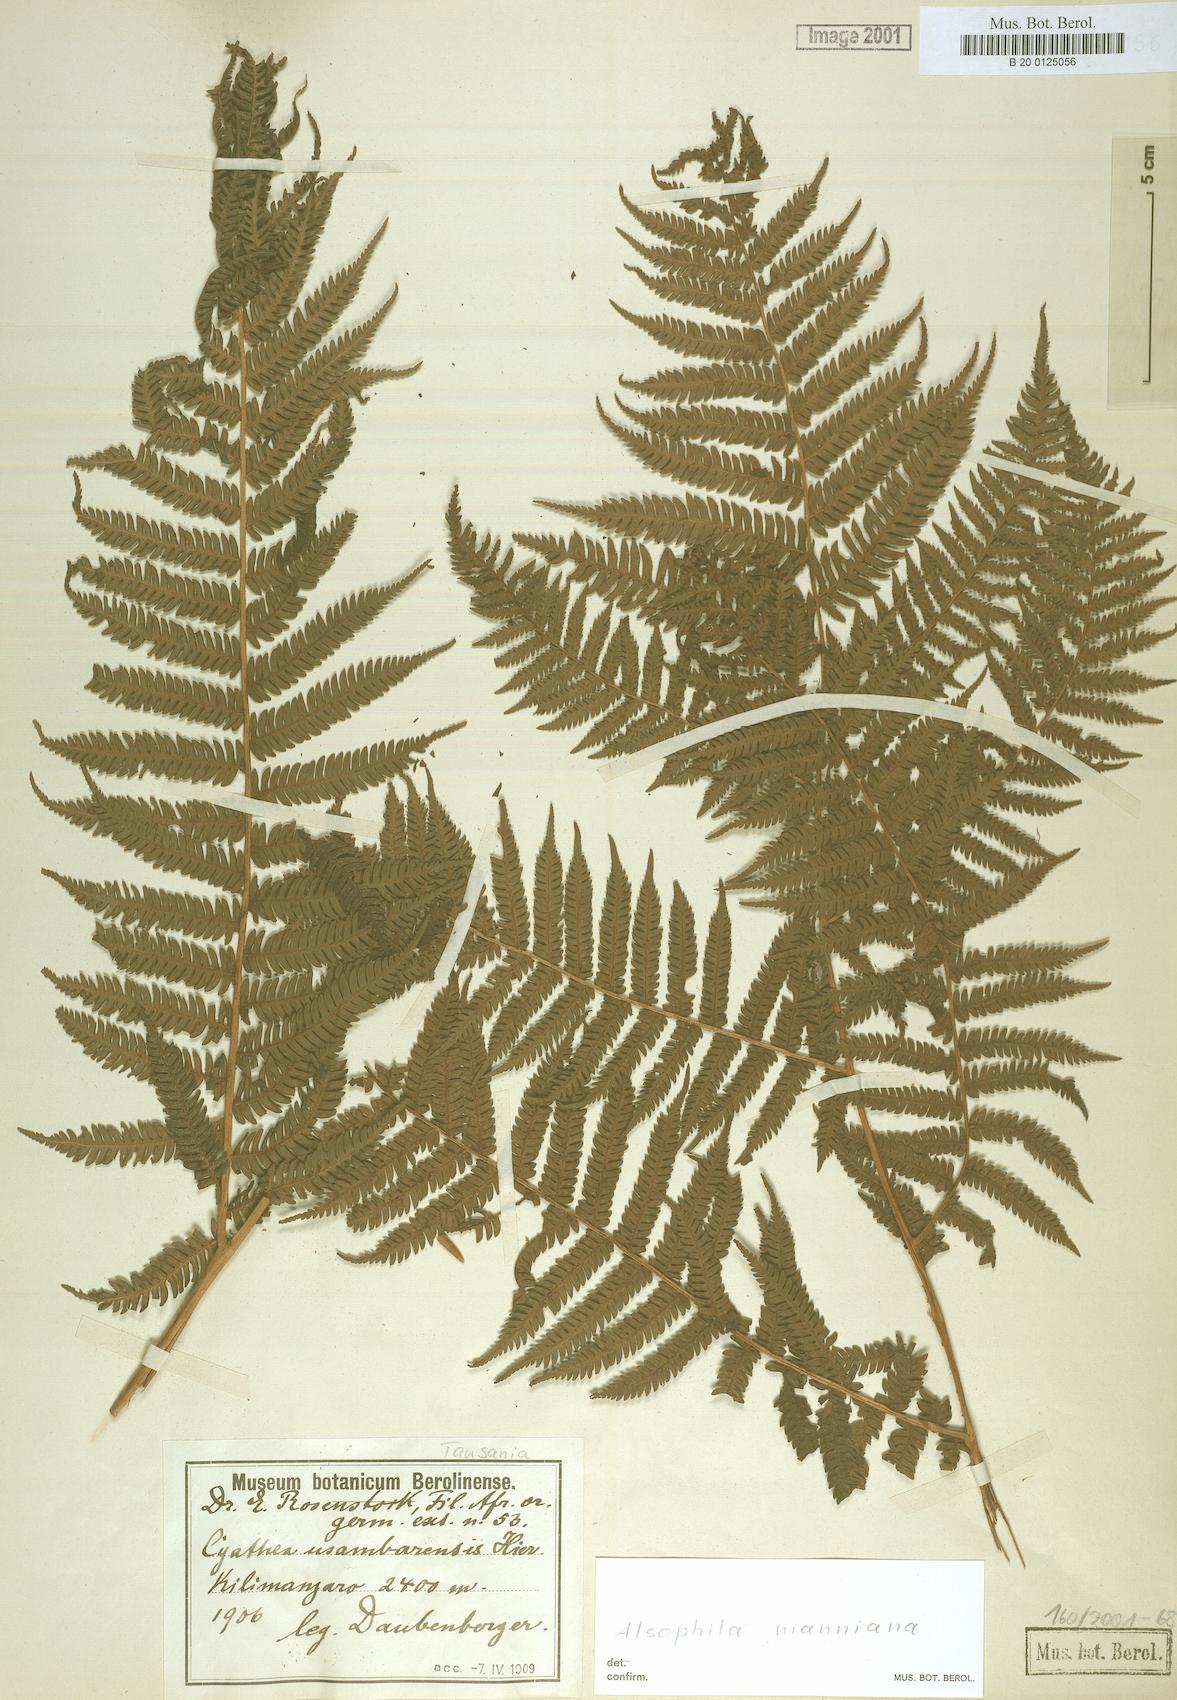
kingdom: Plantae
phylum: Tracheophyta
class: Polypodiopsida
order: Cyatheales
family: Cyatheaceae
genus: Alsophila
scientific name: Alsophila manniana
